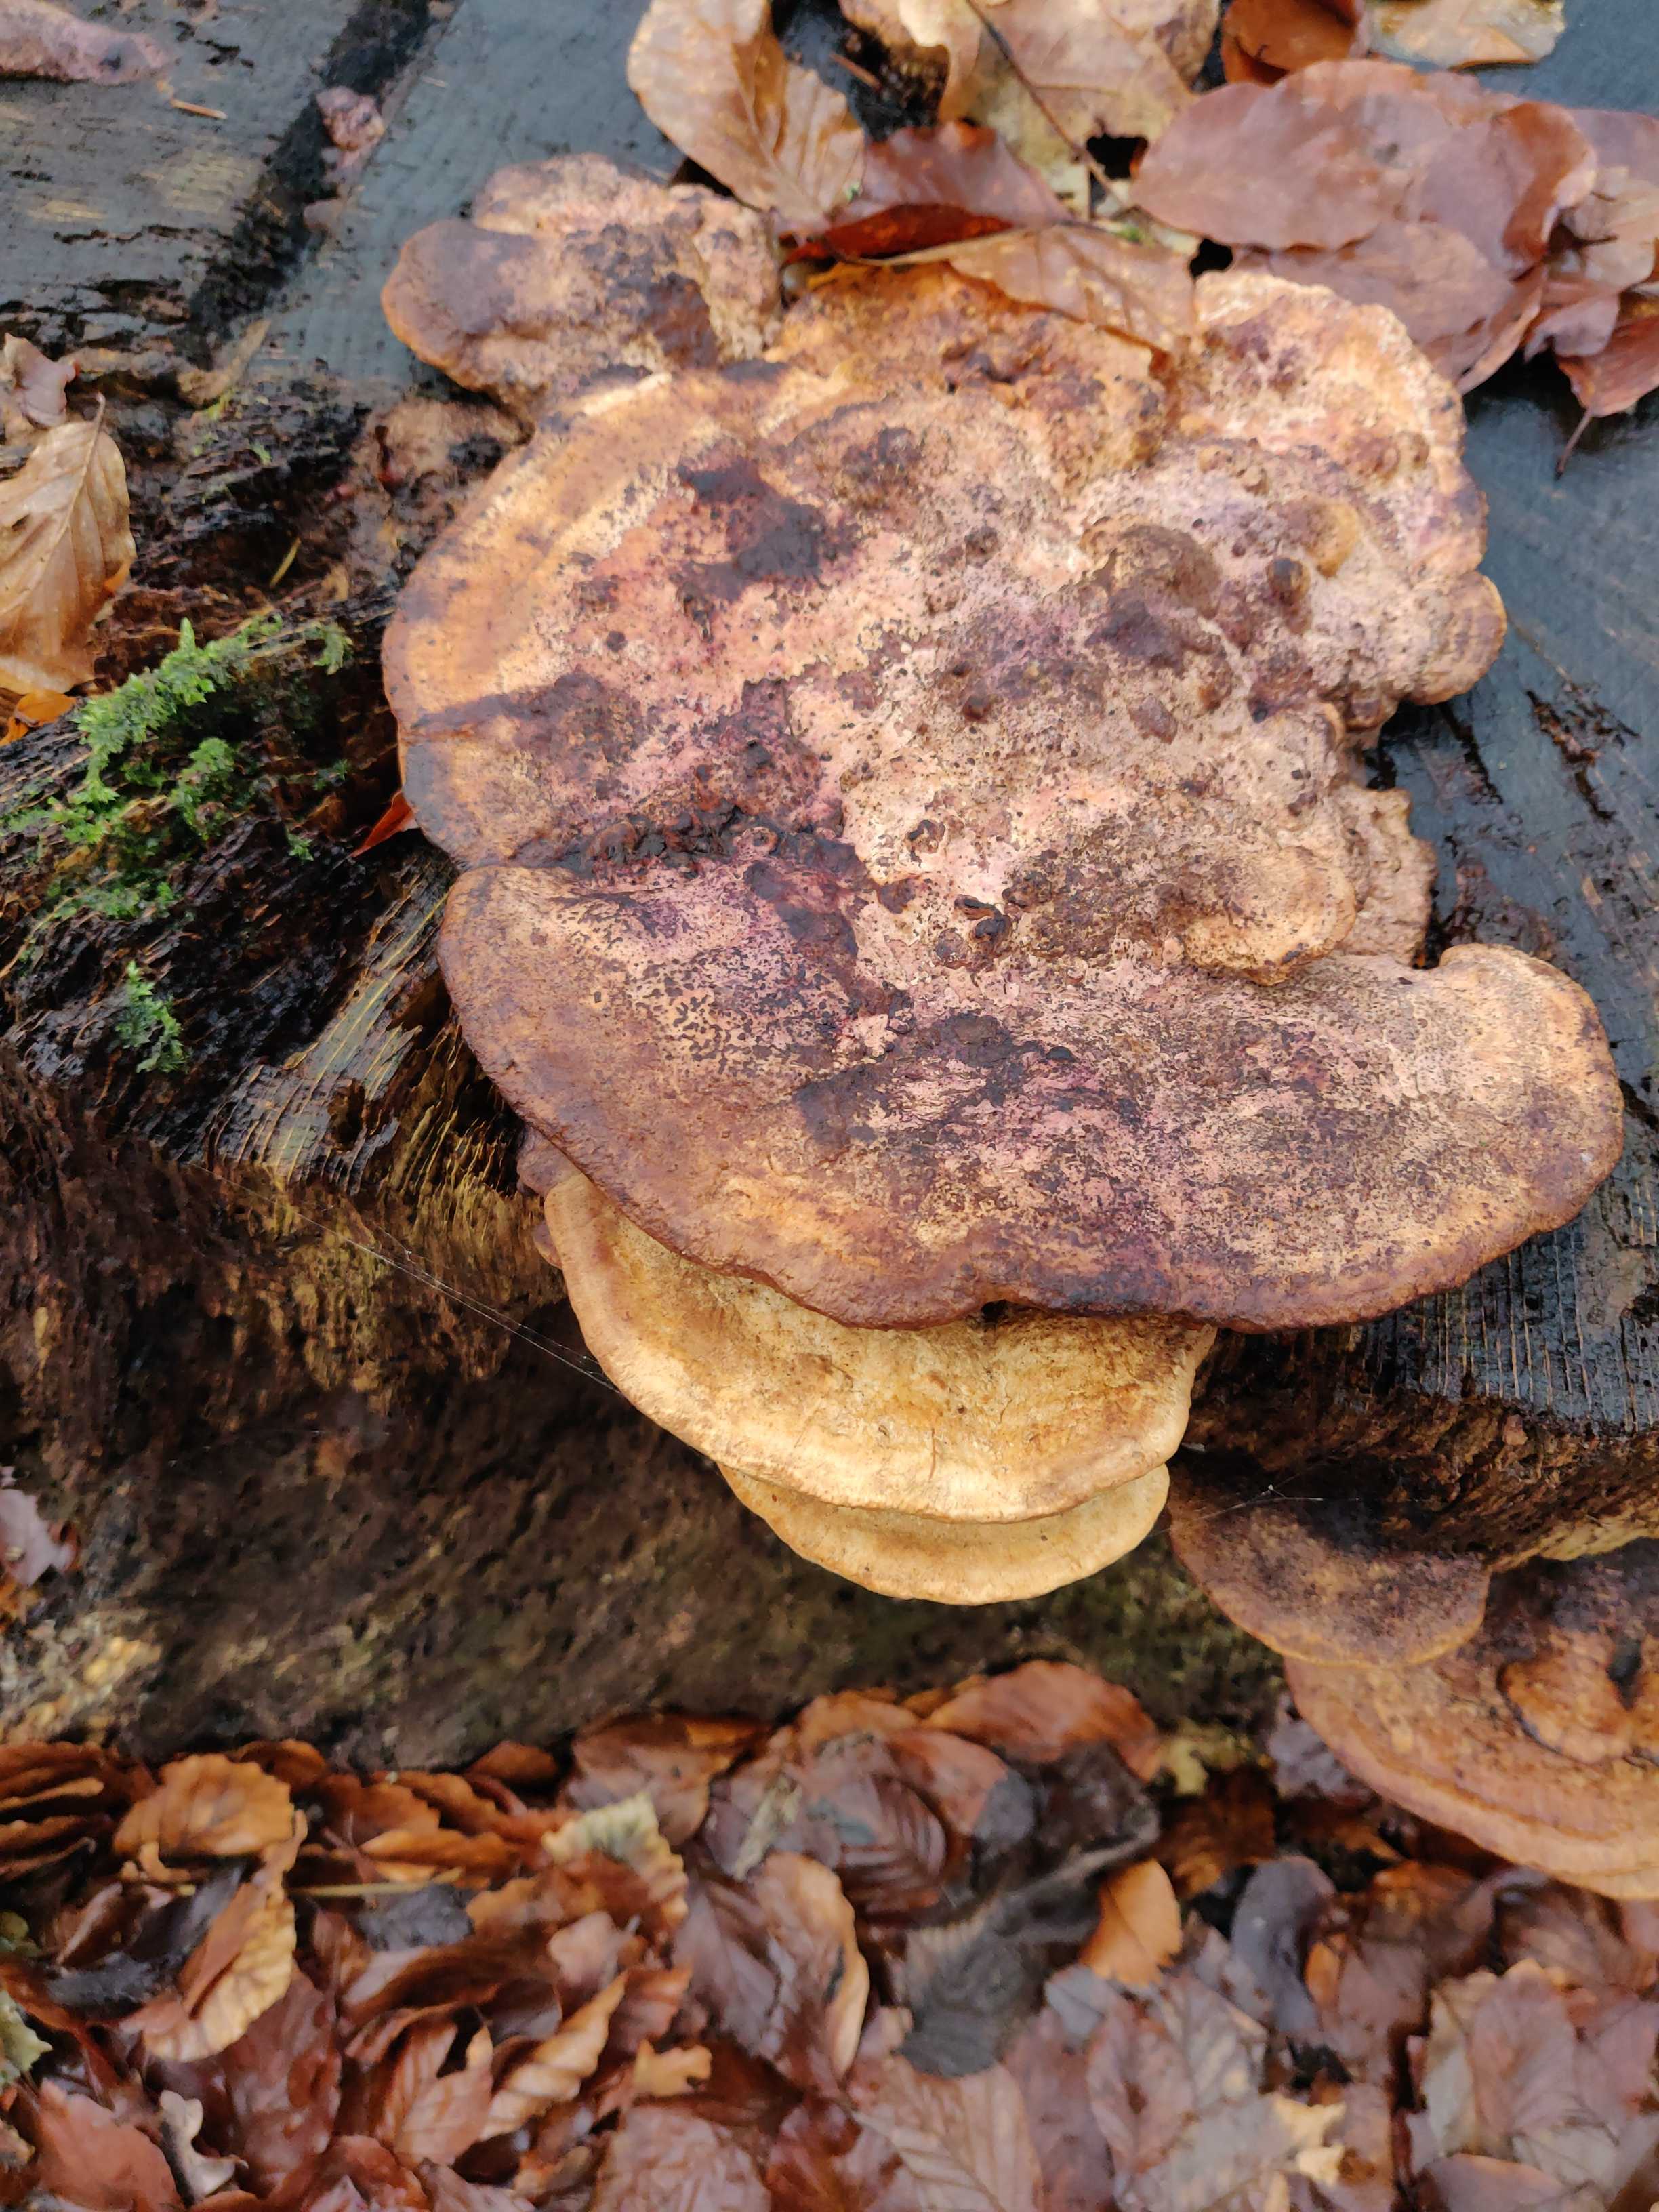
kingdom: Fungi
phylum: Basidiomycota
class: Agaricomycetes
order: Polyporales
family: Fomitopsidaceae
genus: Daedalea
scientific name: Daedalea quercina
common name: ege-labyrintsvamp
